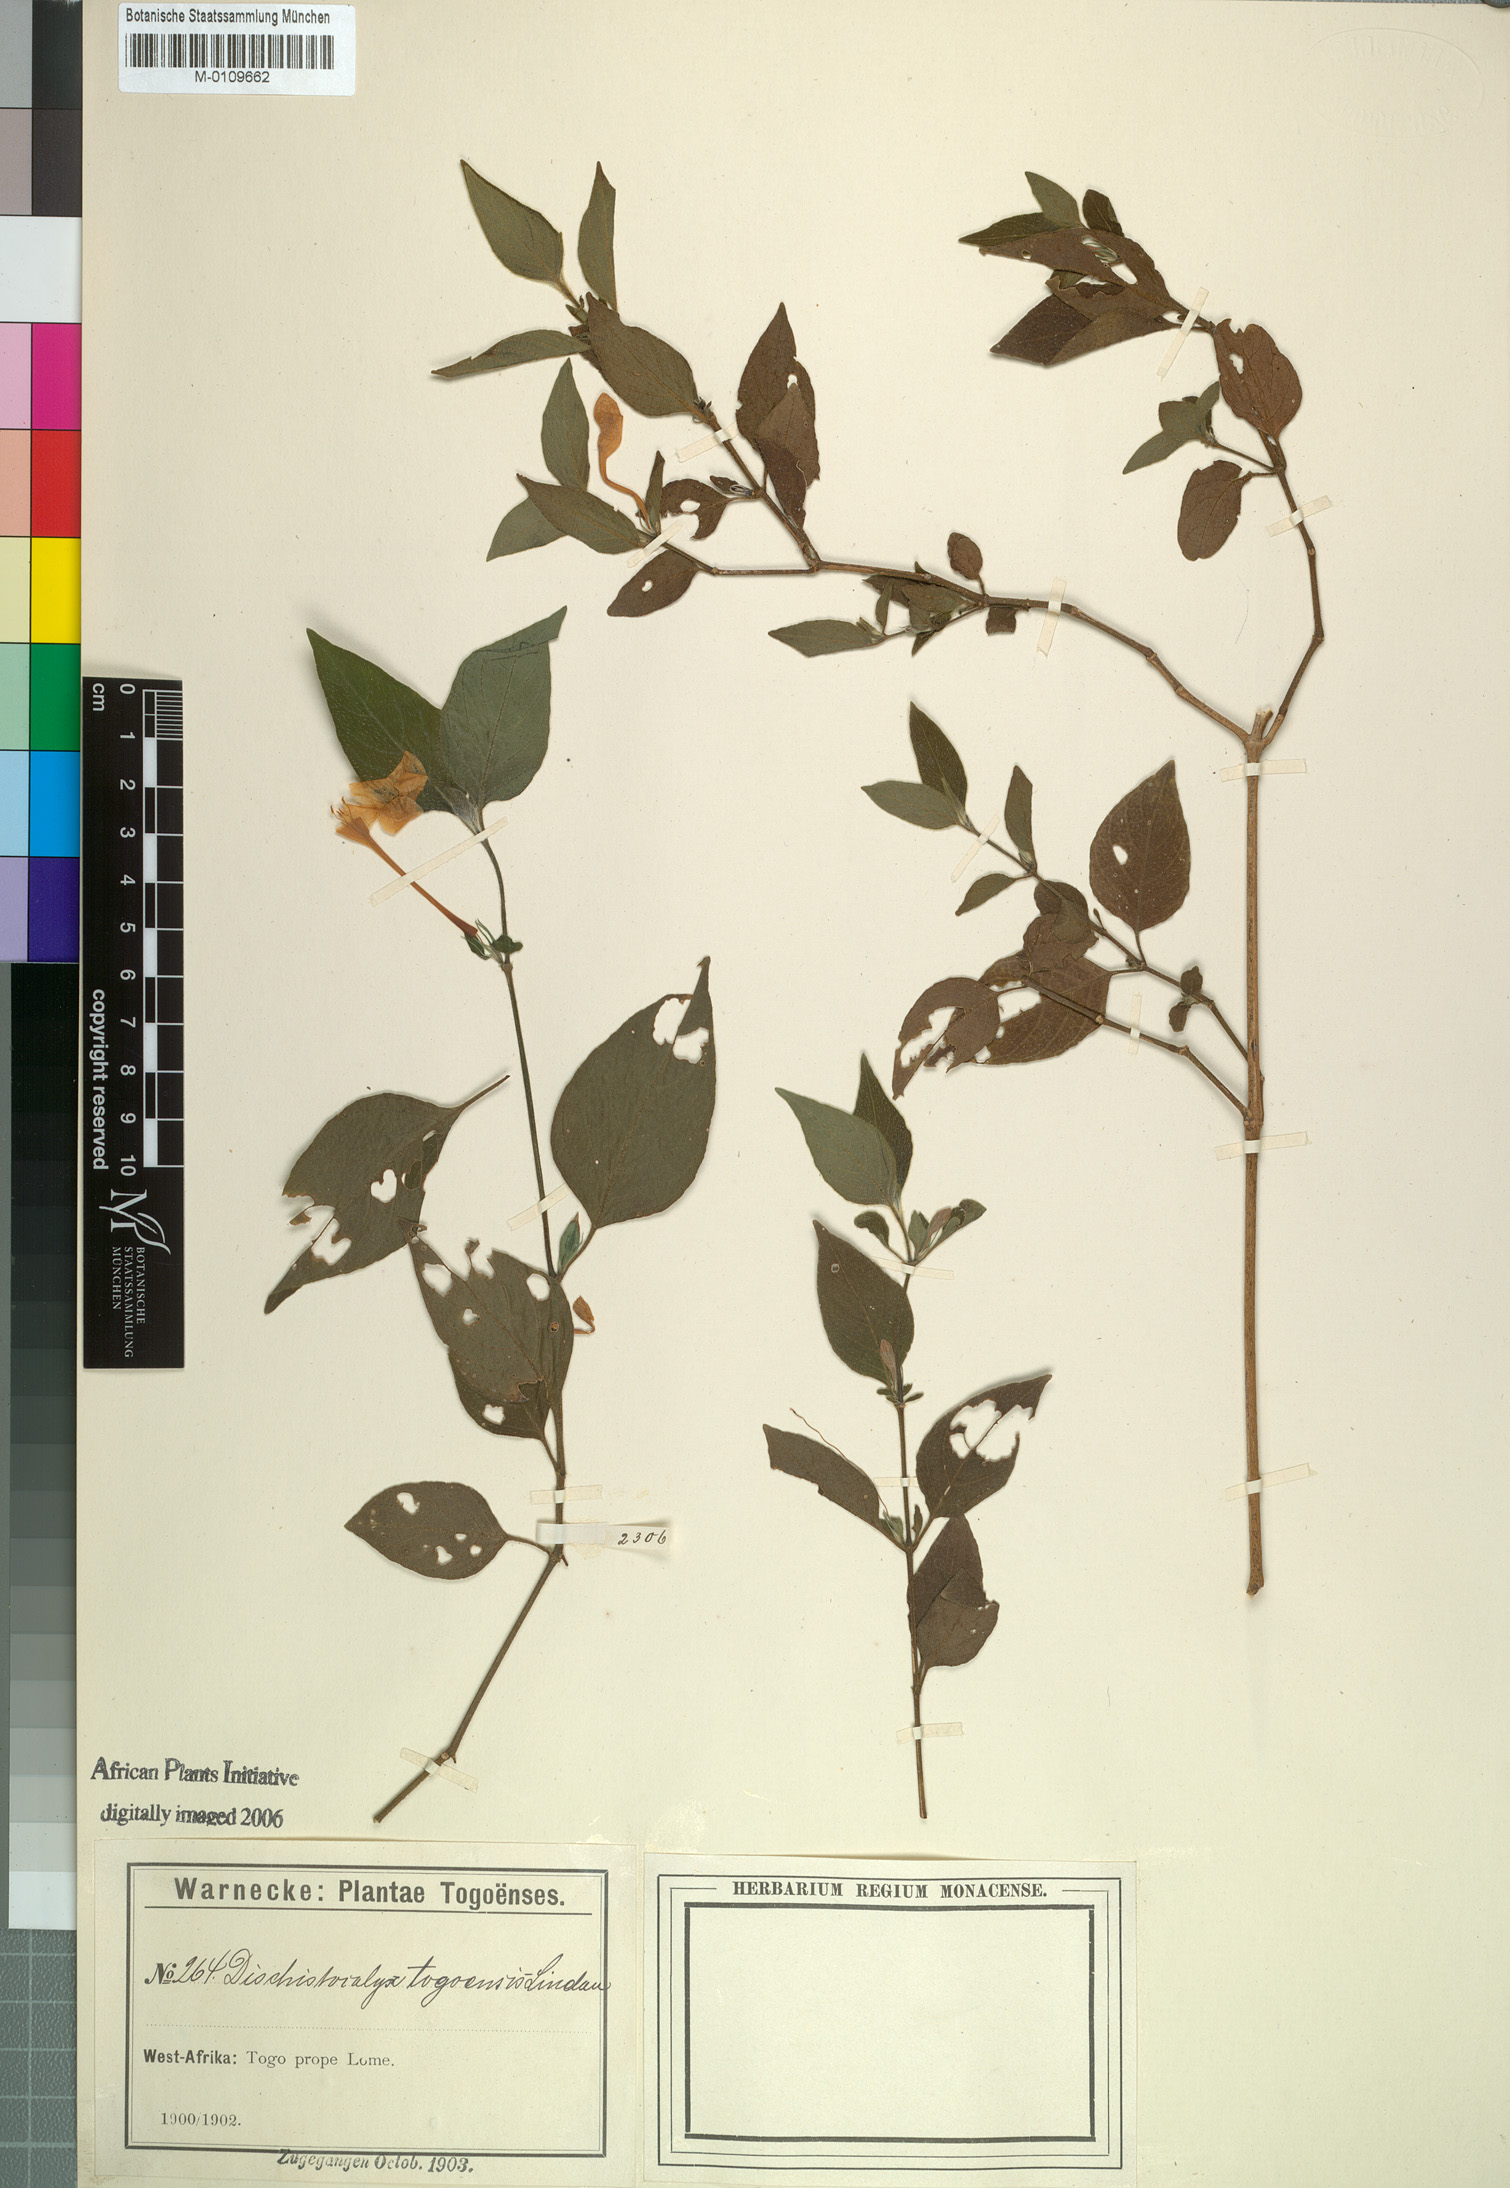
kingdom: Plantae
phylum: Tracheophyta
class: Magnoliopsida
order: Lamiales
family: Acanthaceae
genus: Ruellia
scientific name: Ruellia togoensis
